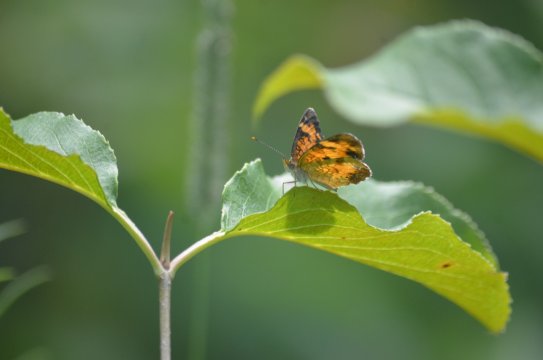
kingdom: Animalia
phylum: Arthropoda
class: Insecta
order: Lepidoptera
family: Nymphalidae
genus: Phyciodes
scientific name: Phyciodes tharos
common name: Northern Crescent
